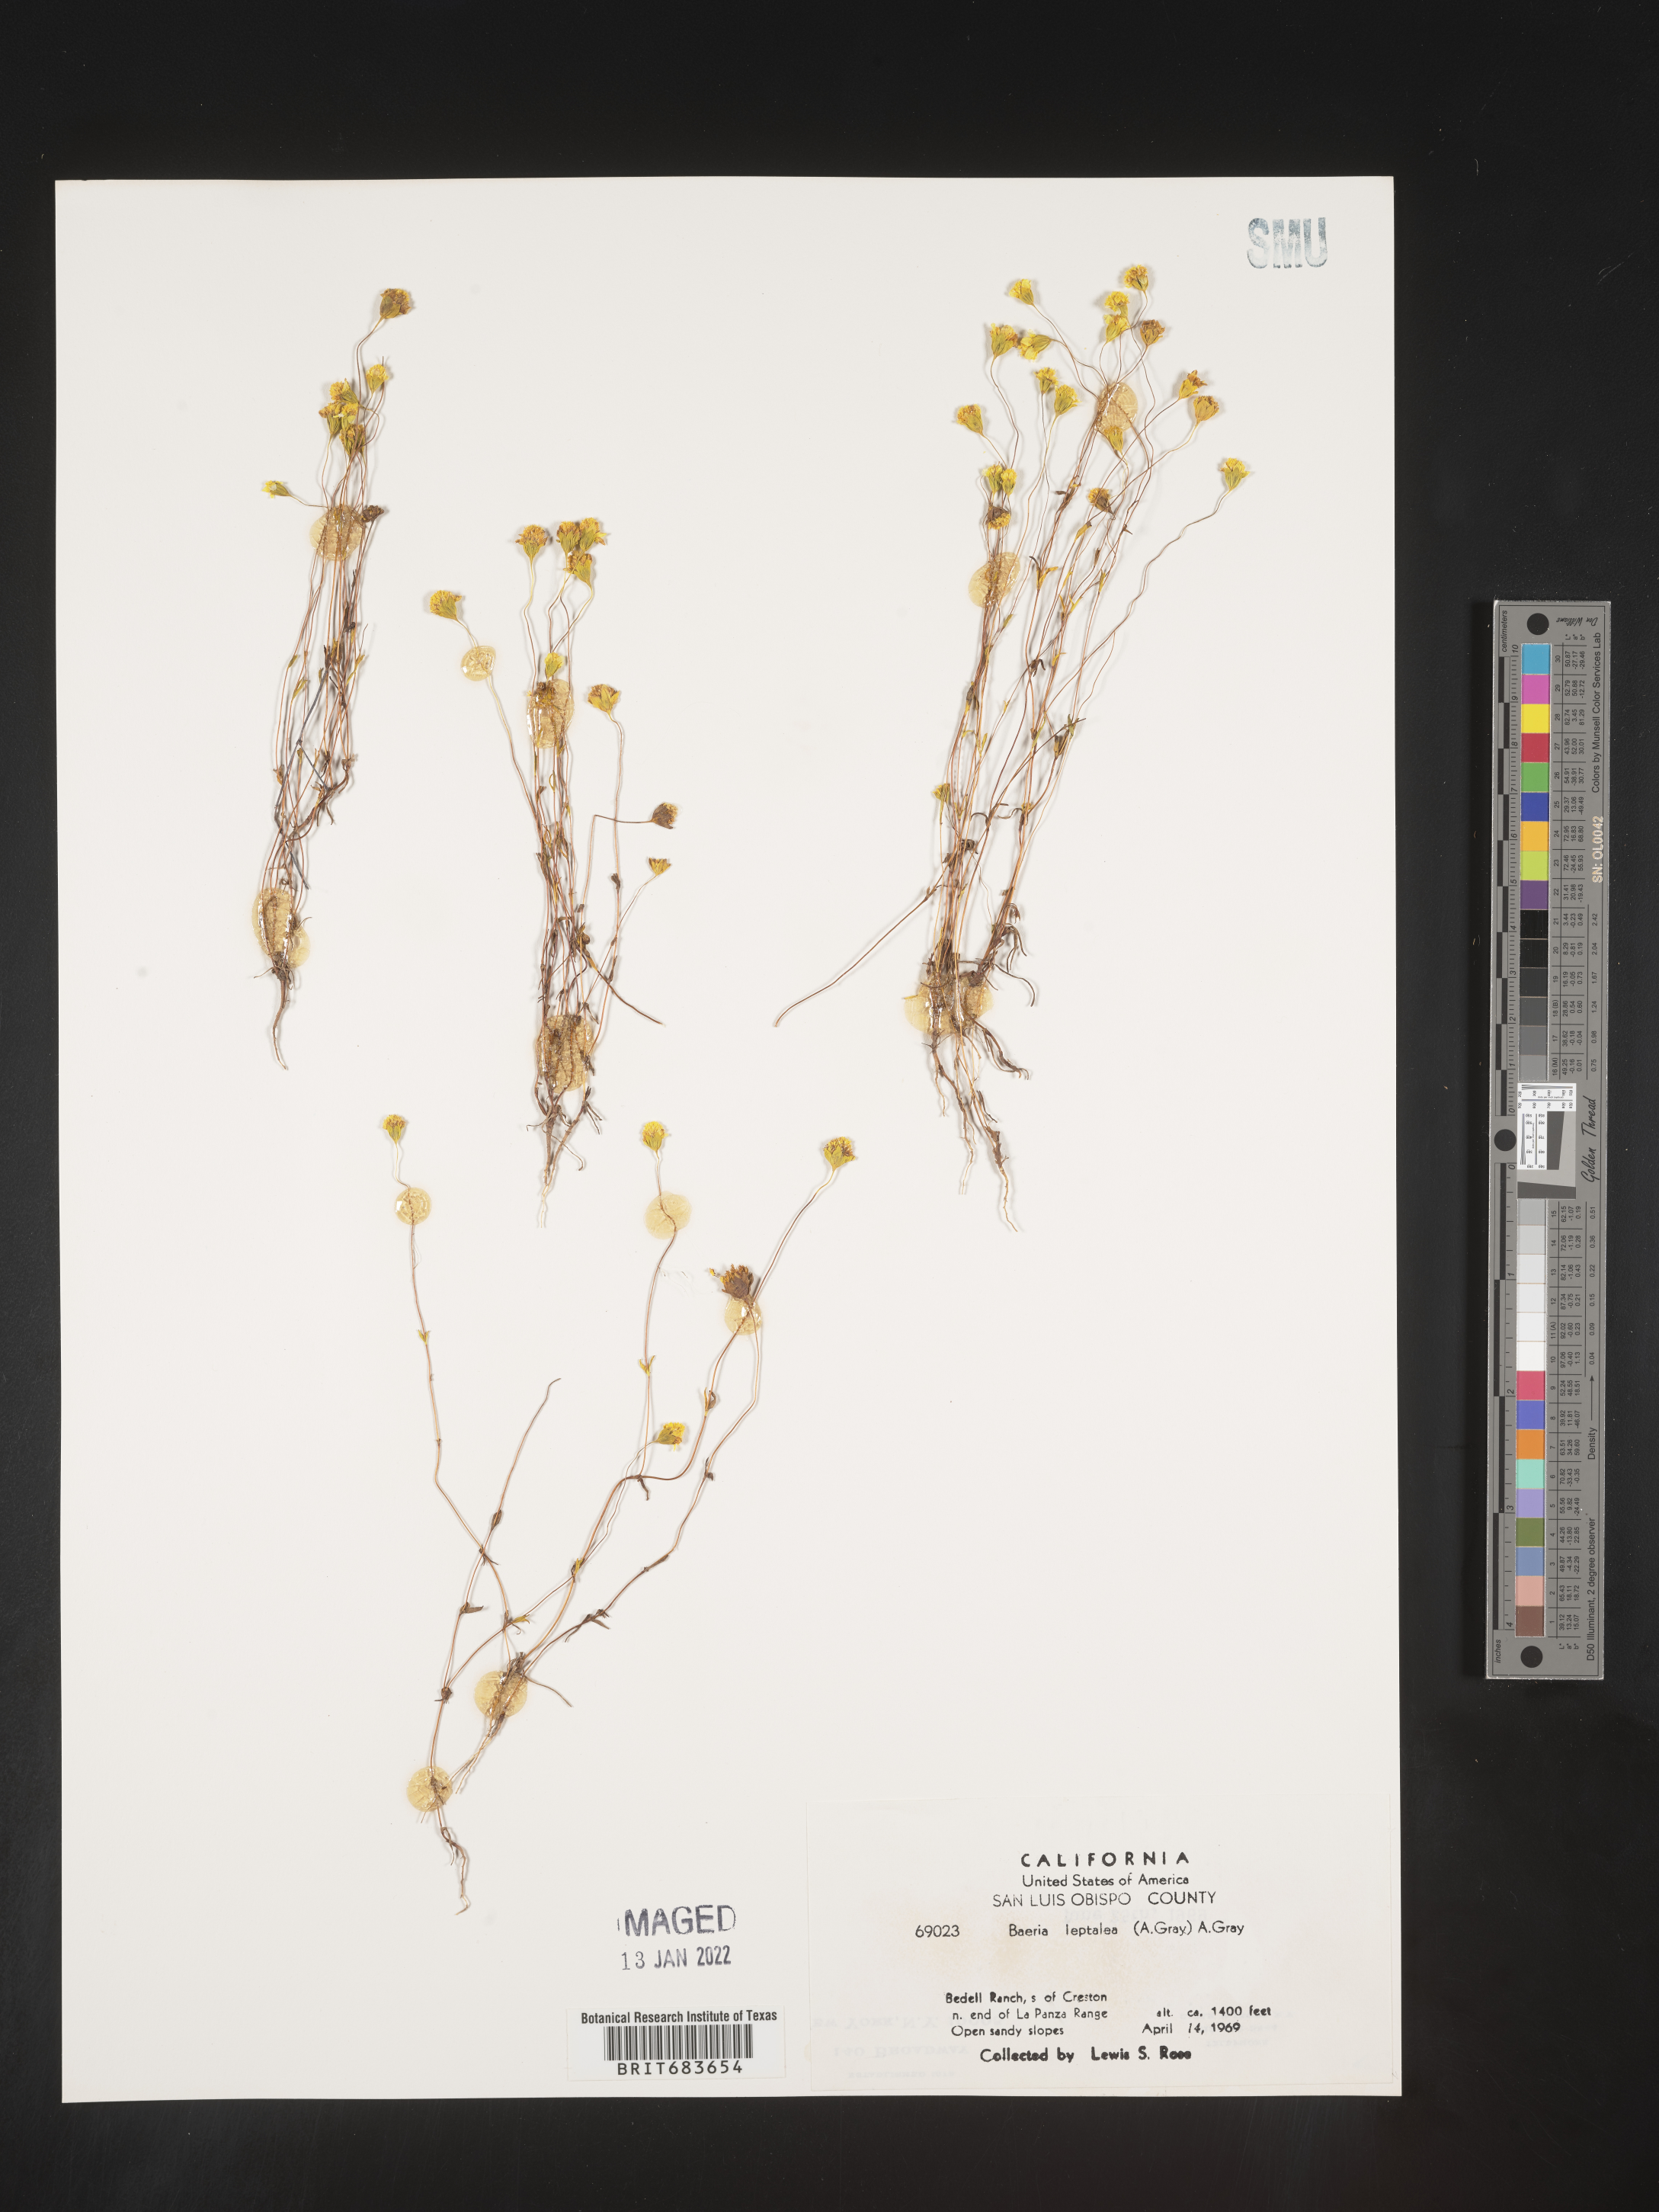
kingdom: Plantae
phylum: Tracheophyta
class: Magnoliopsida
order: Asterales
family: Asteraceae
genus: Lasthenia
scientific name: Lasthenia
